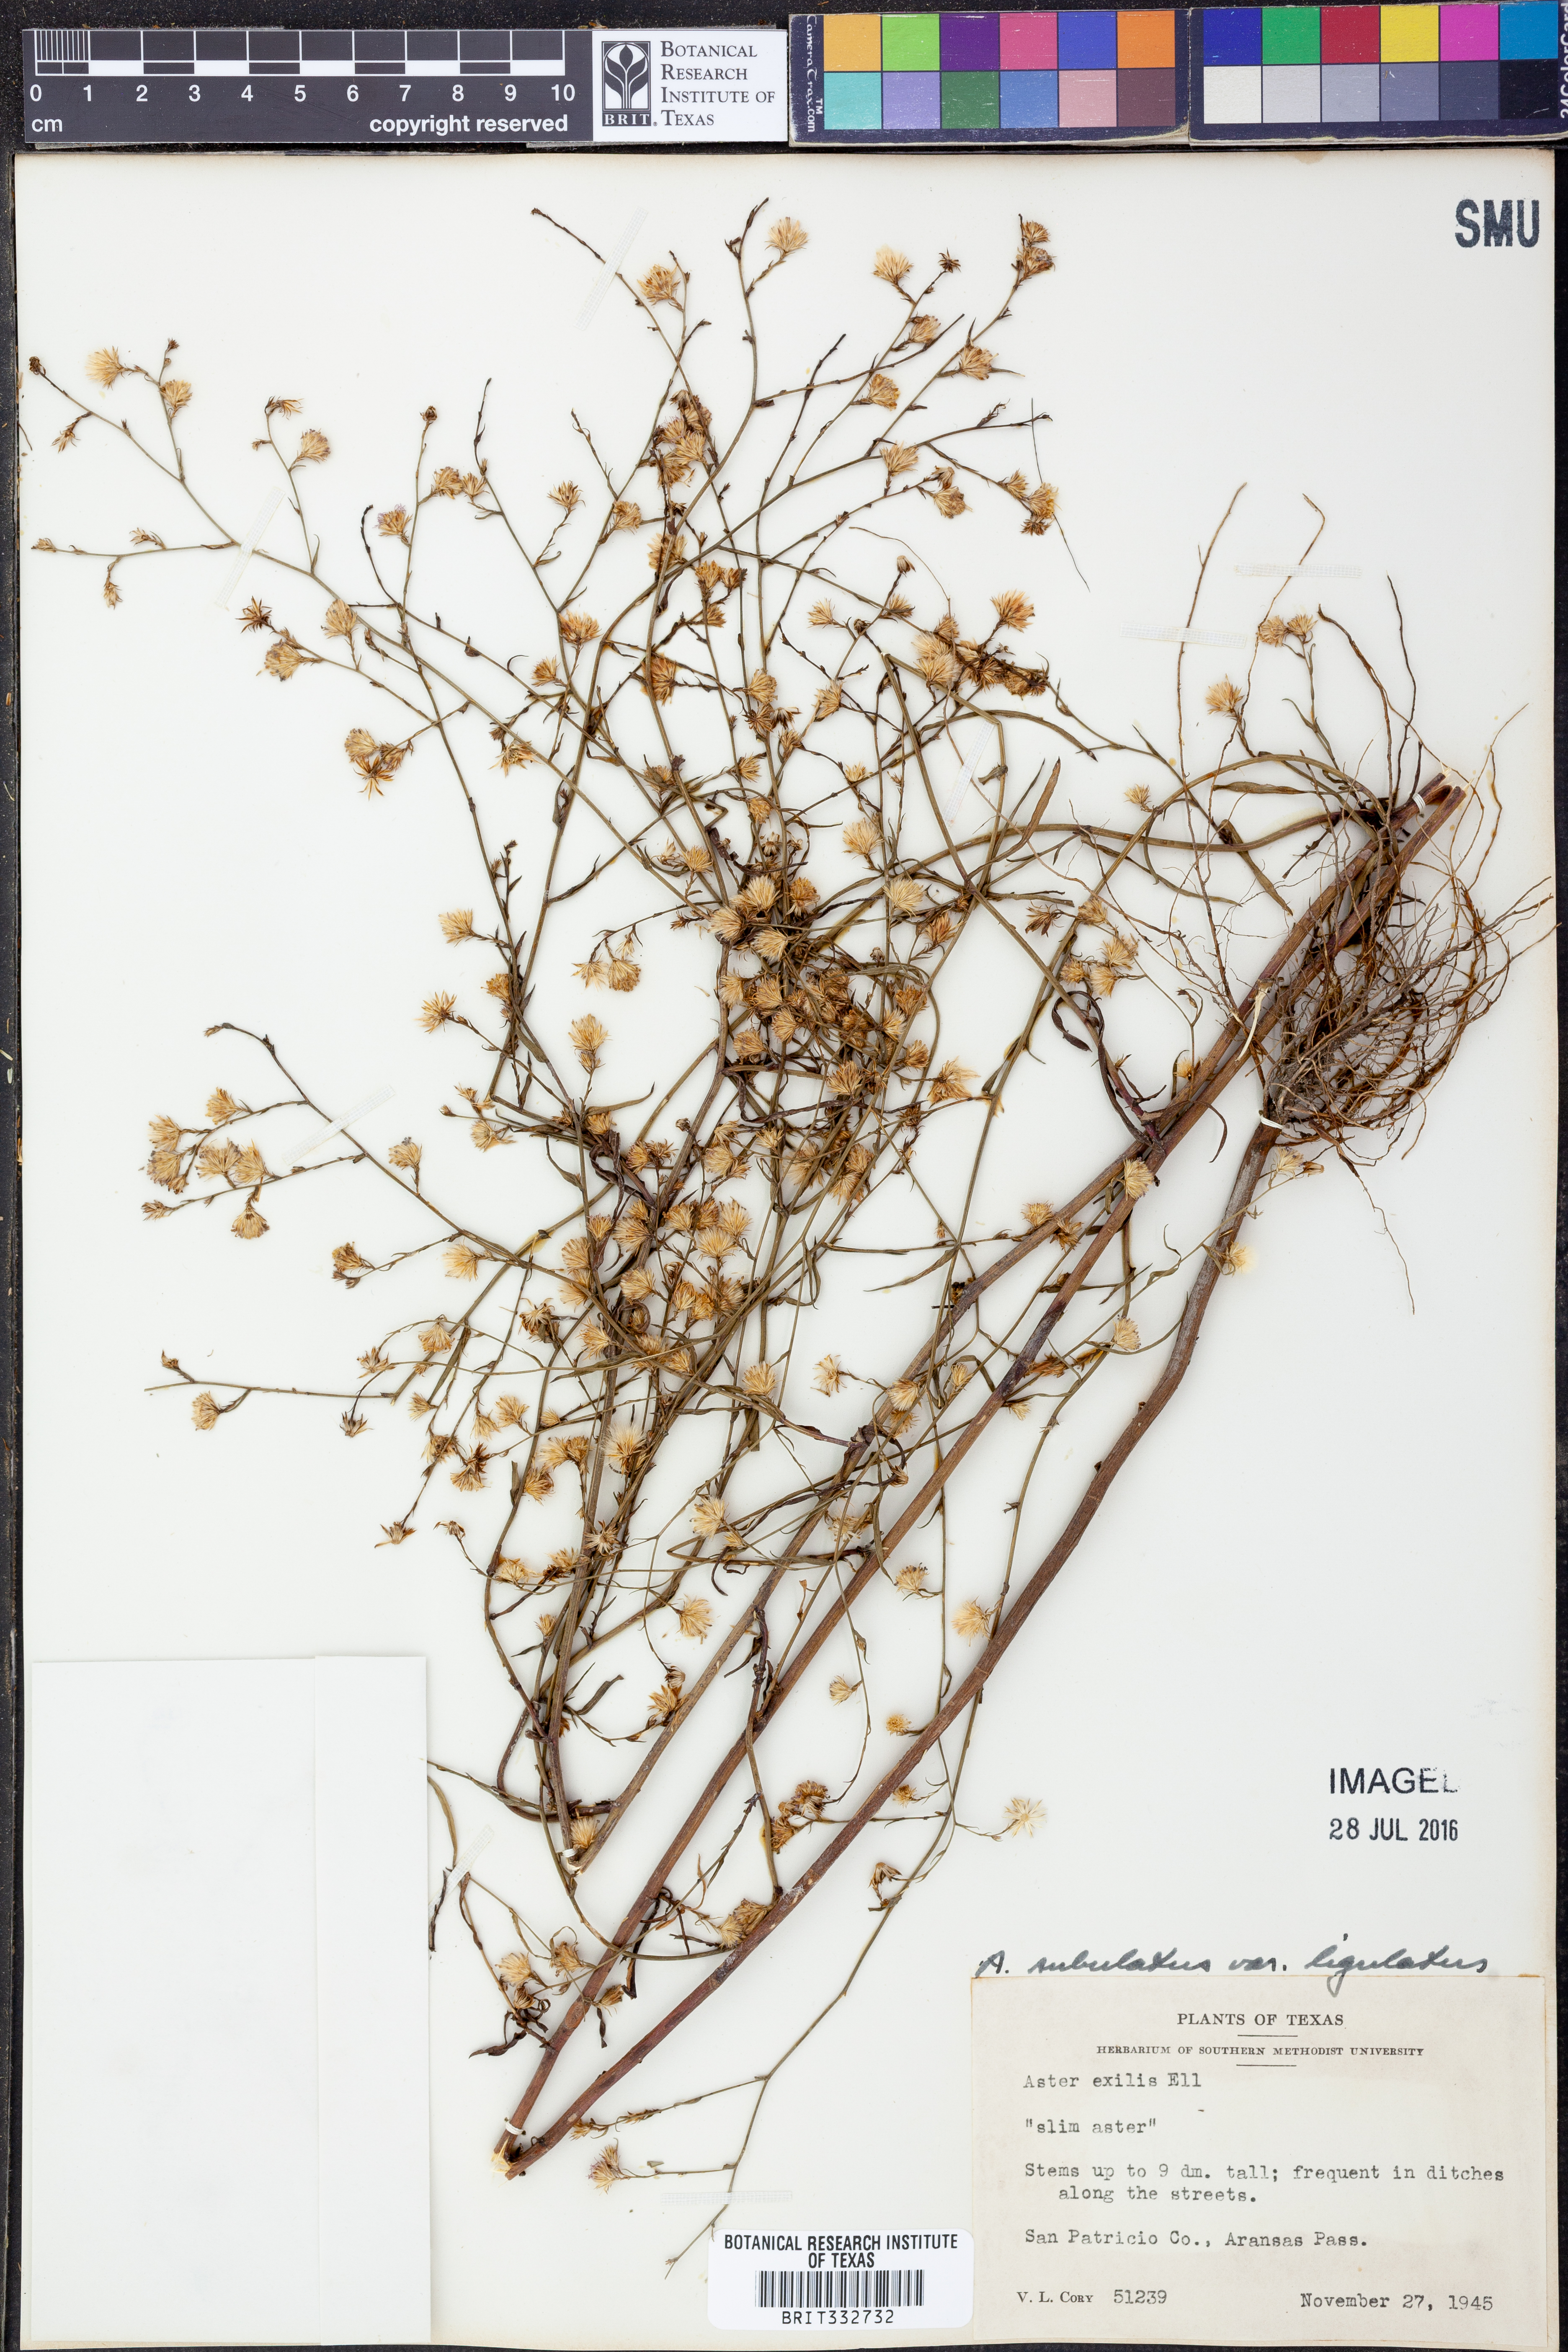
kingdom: Plantae
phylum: Tracheophyta
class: Magnoliopsida
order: Asterales
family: Asteraceae
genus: Symphyotrichum
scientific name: Symphyotrichum divaricatum
